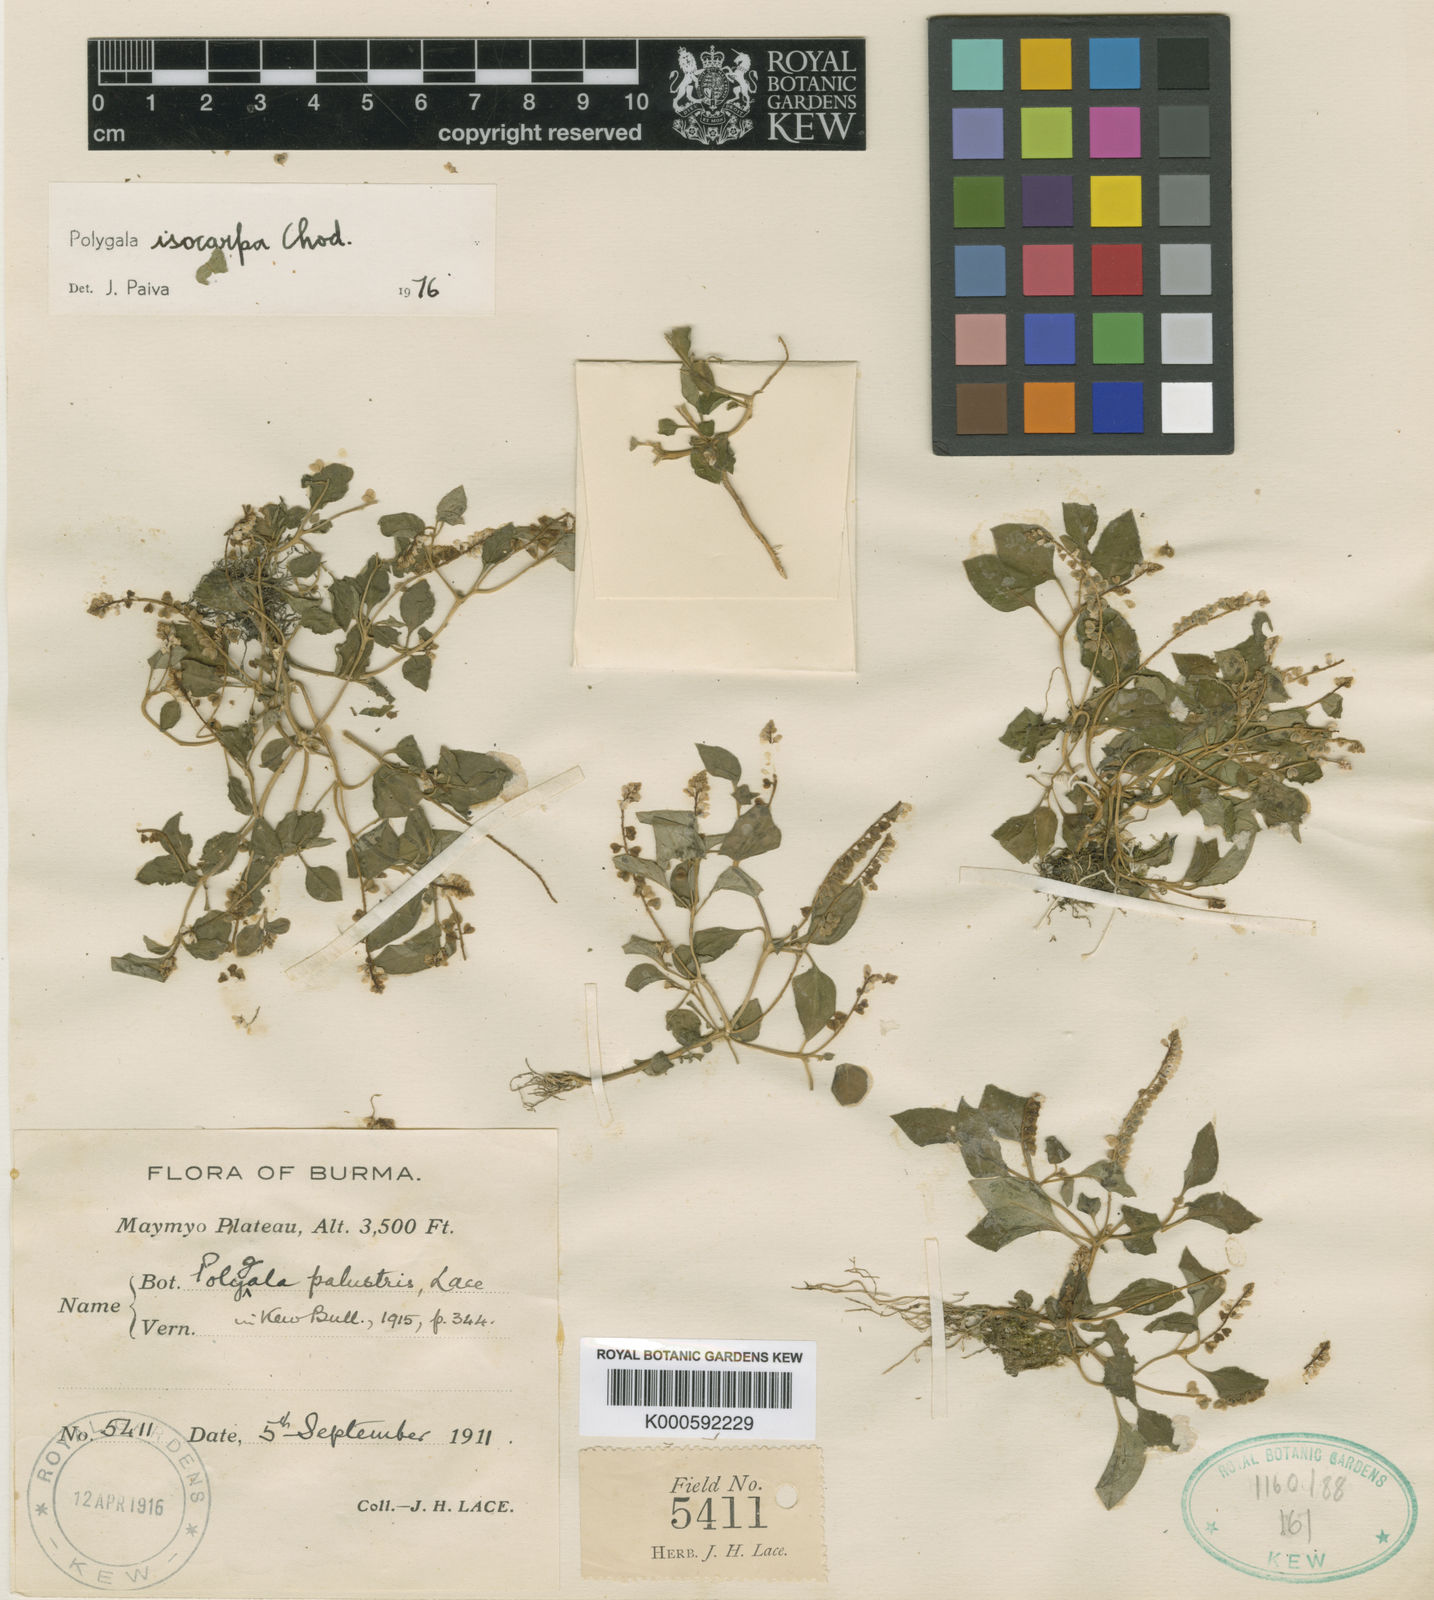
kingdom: Plantae
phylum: Tracheophyta
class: Magnoliopsida
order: Fabales
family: Polygalaceae
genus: Polygala
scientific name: Polygala isocarpa
